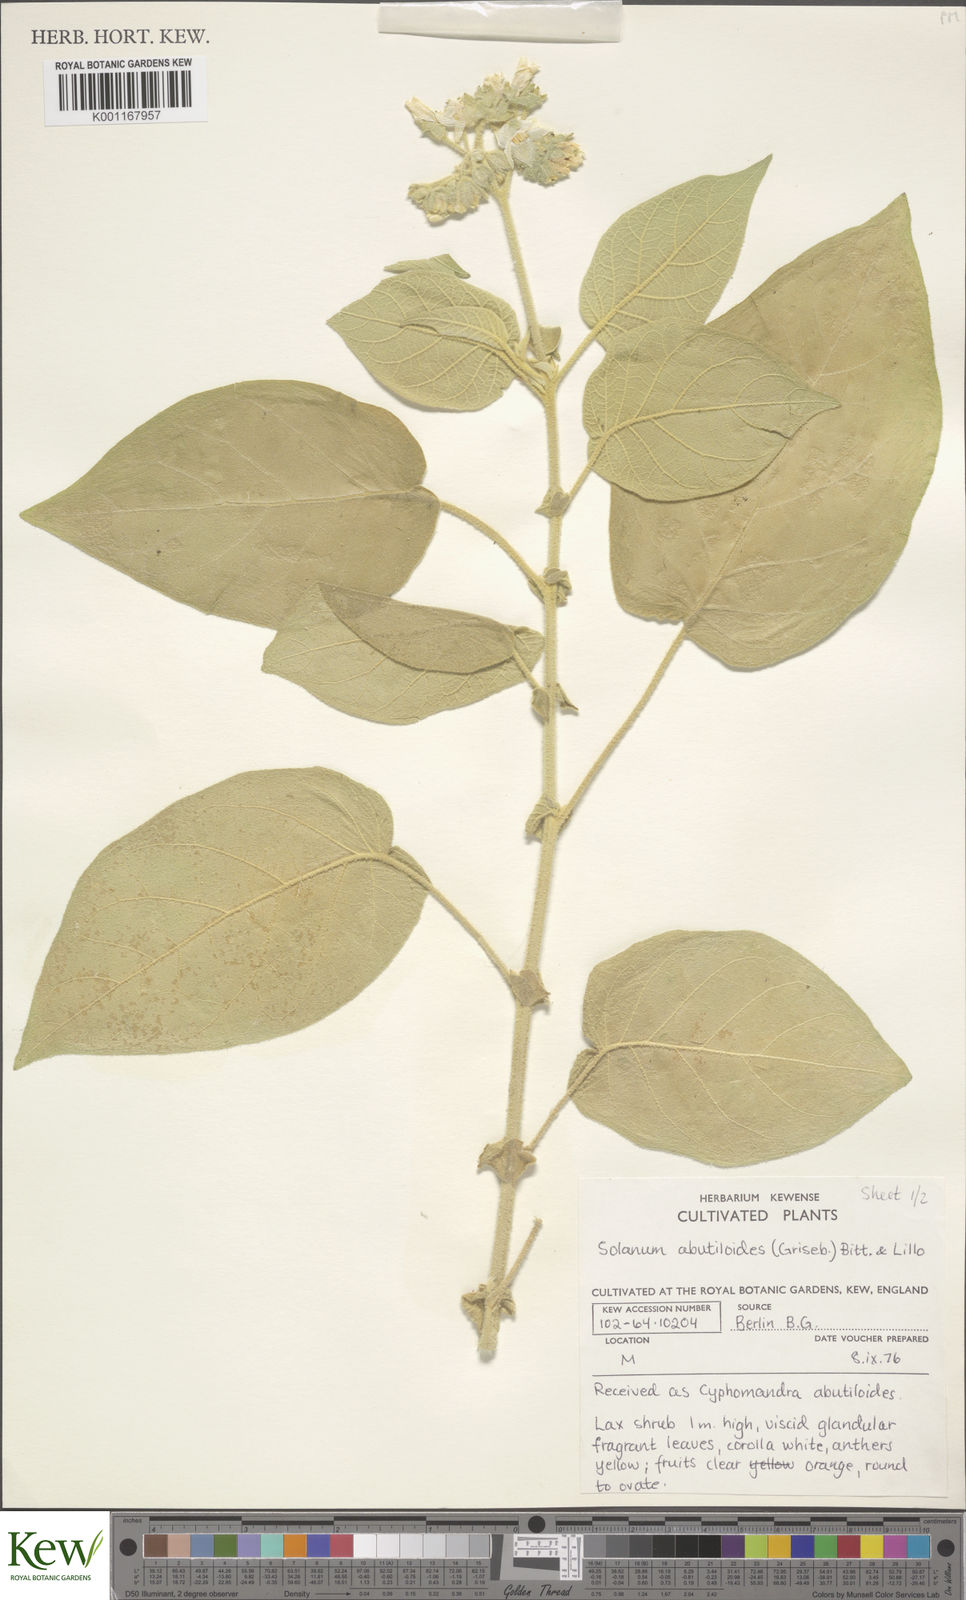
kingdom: Plantae
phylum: Tracheophyta
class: Magnoliopsida
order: Solanales
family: Solanaceae
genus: Solanum
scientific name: Solanum abutiloides
